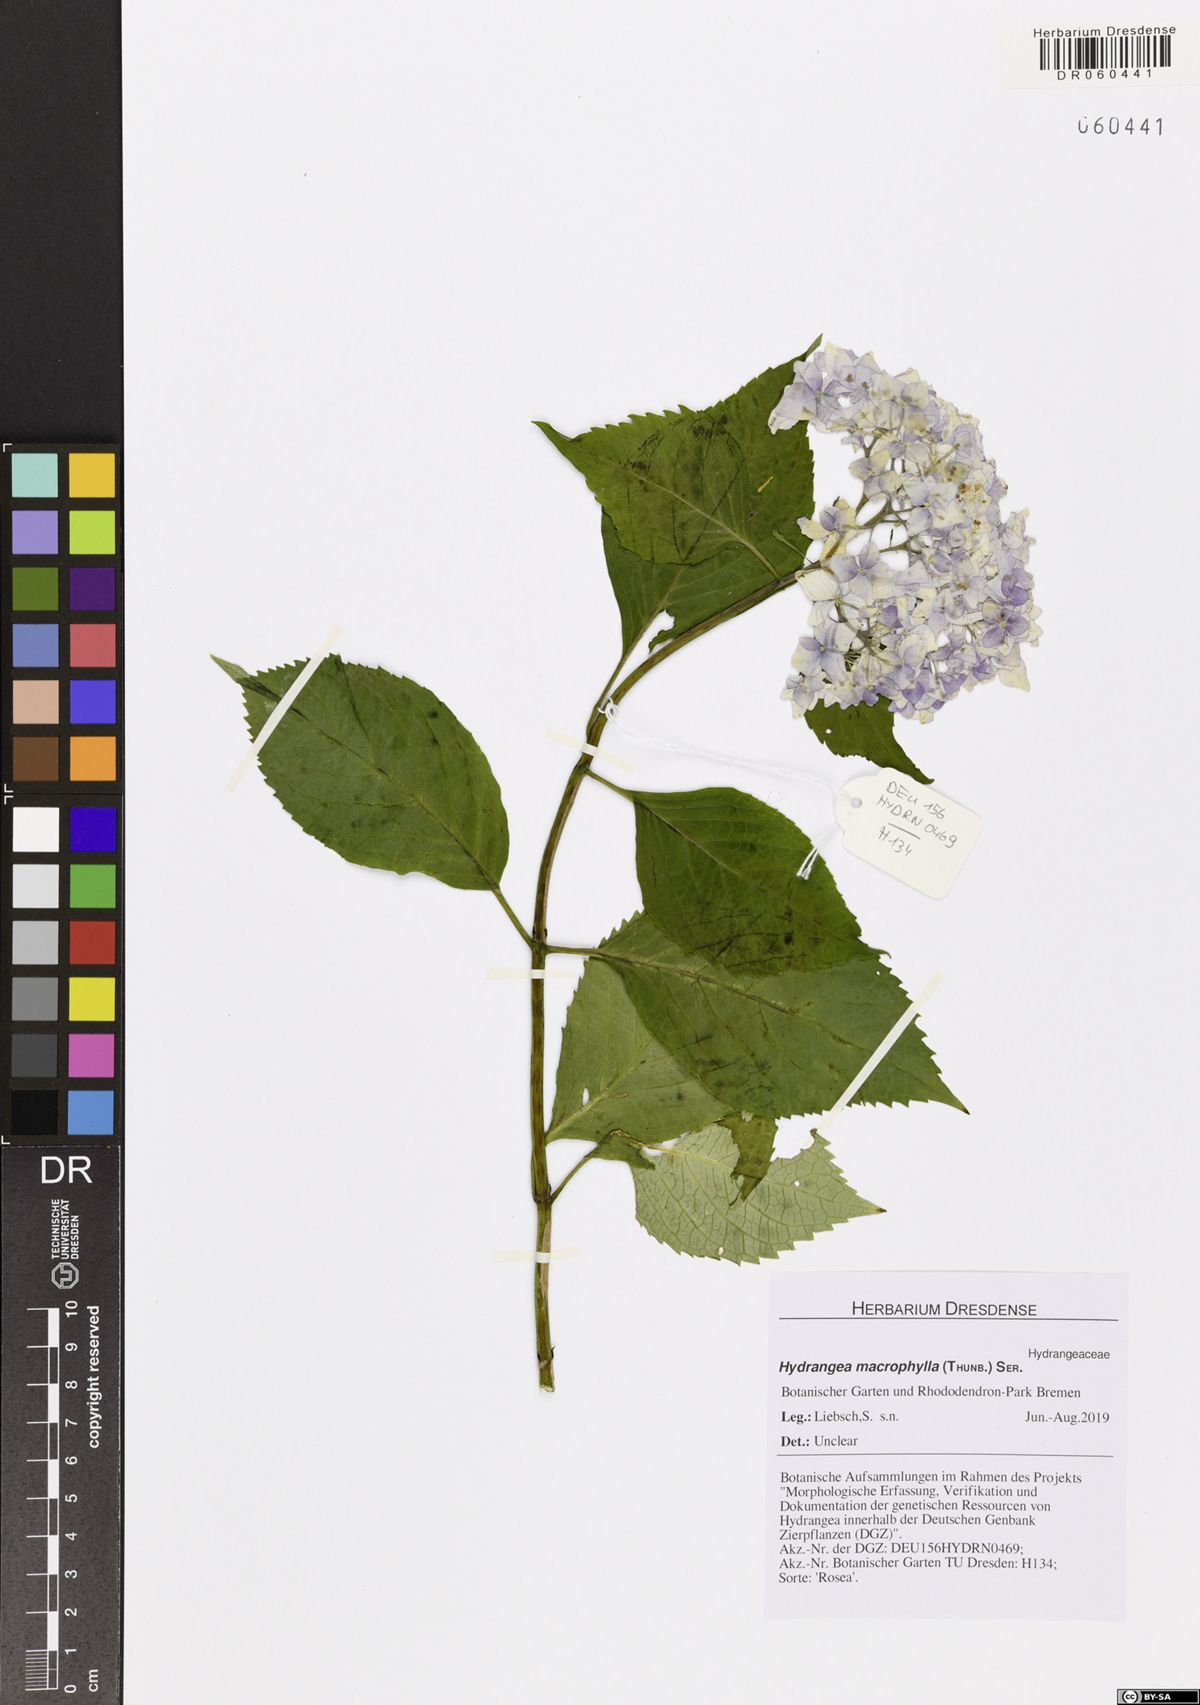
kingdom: Plantae
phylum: Tracheophyta
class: Magnoliopsida
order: Cornales
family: Hydrangeaceae
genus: Hydrangea
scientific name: Hydrangea macrophylla
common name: Hydrangea
